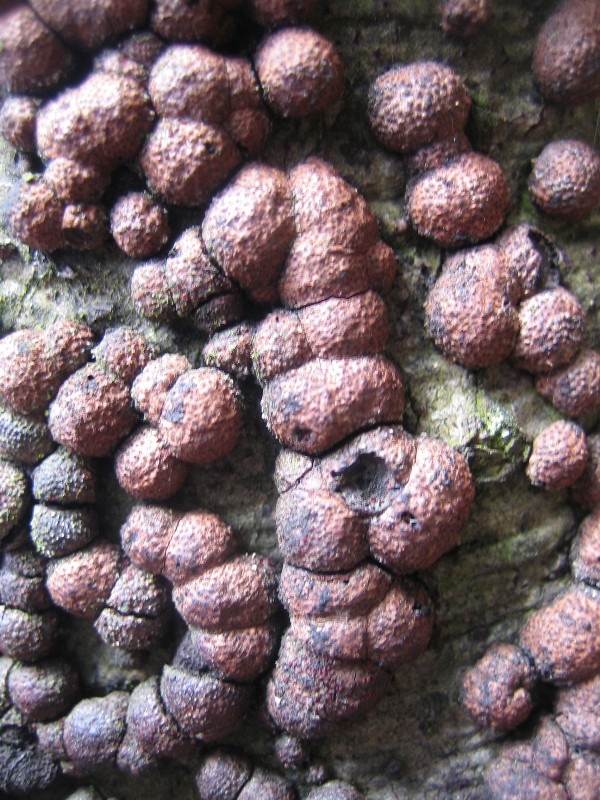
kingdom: Fungi
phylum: Ascomycota
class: Sordariomycetes
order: Xylariales
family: Hypoxylaceae
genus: Hypoxylon
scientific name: Hypoxylon fragiforme
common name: kuljordbær
